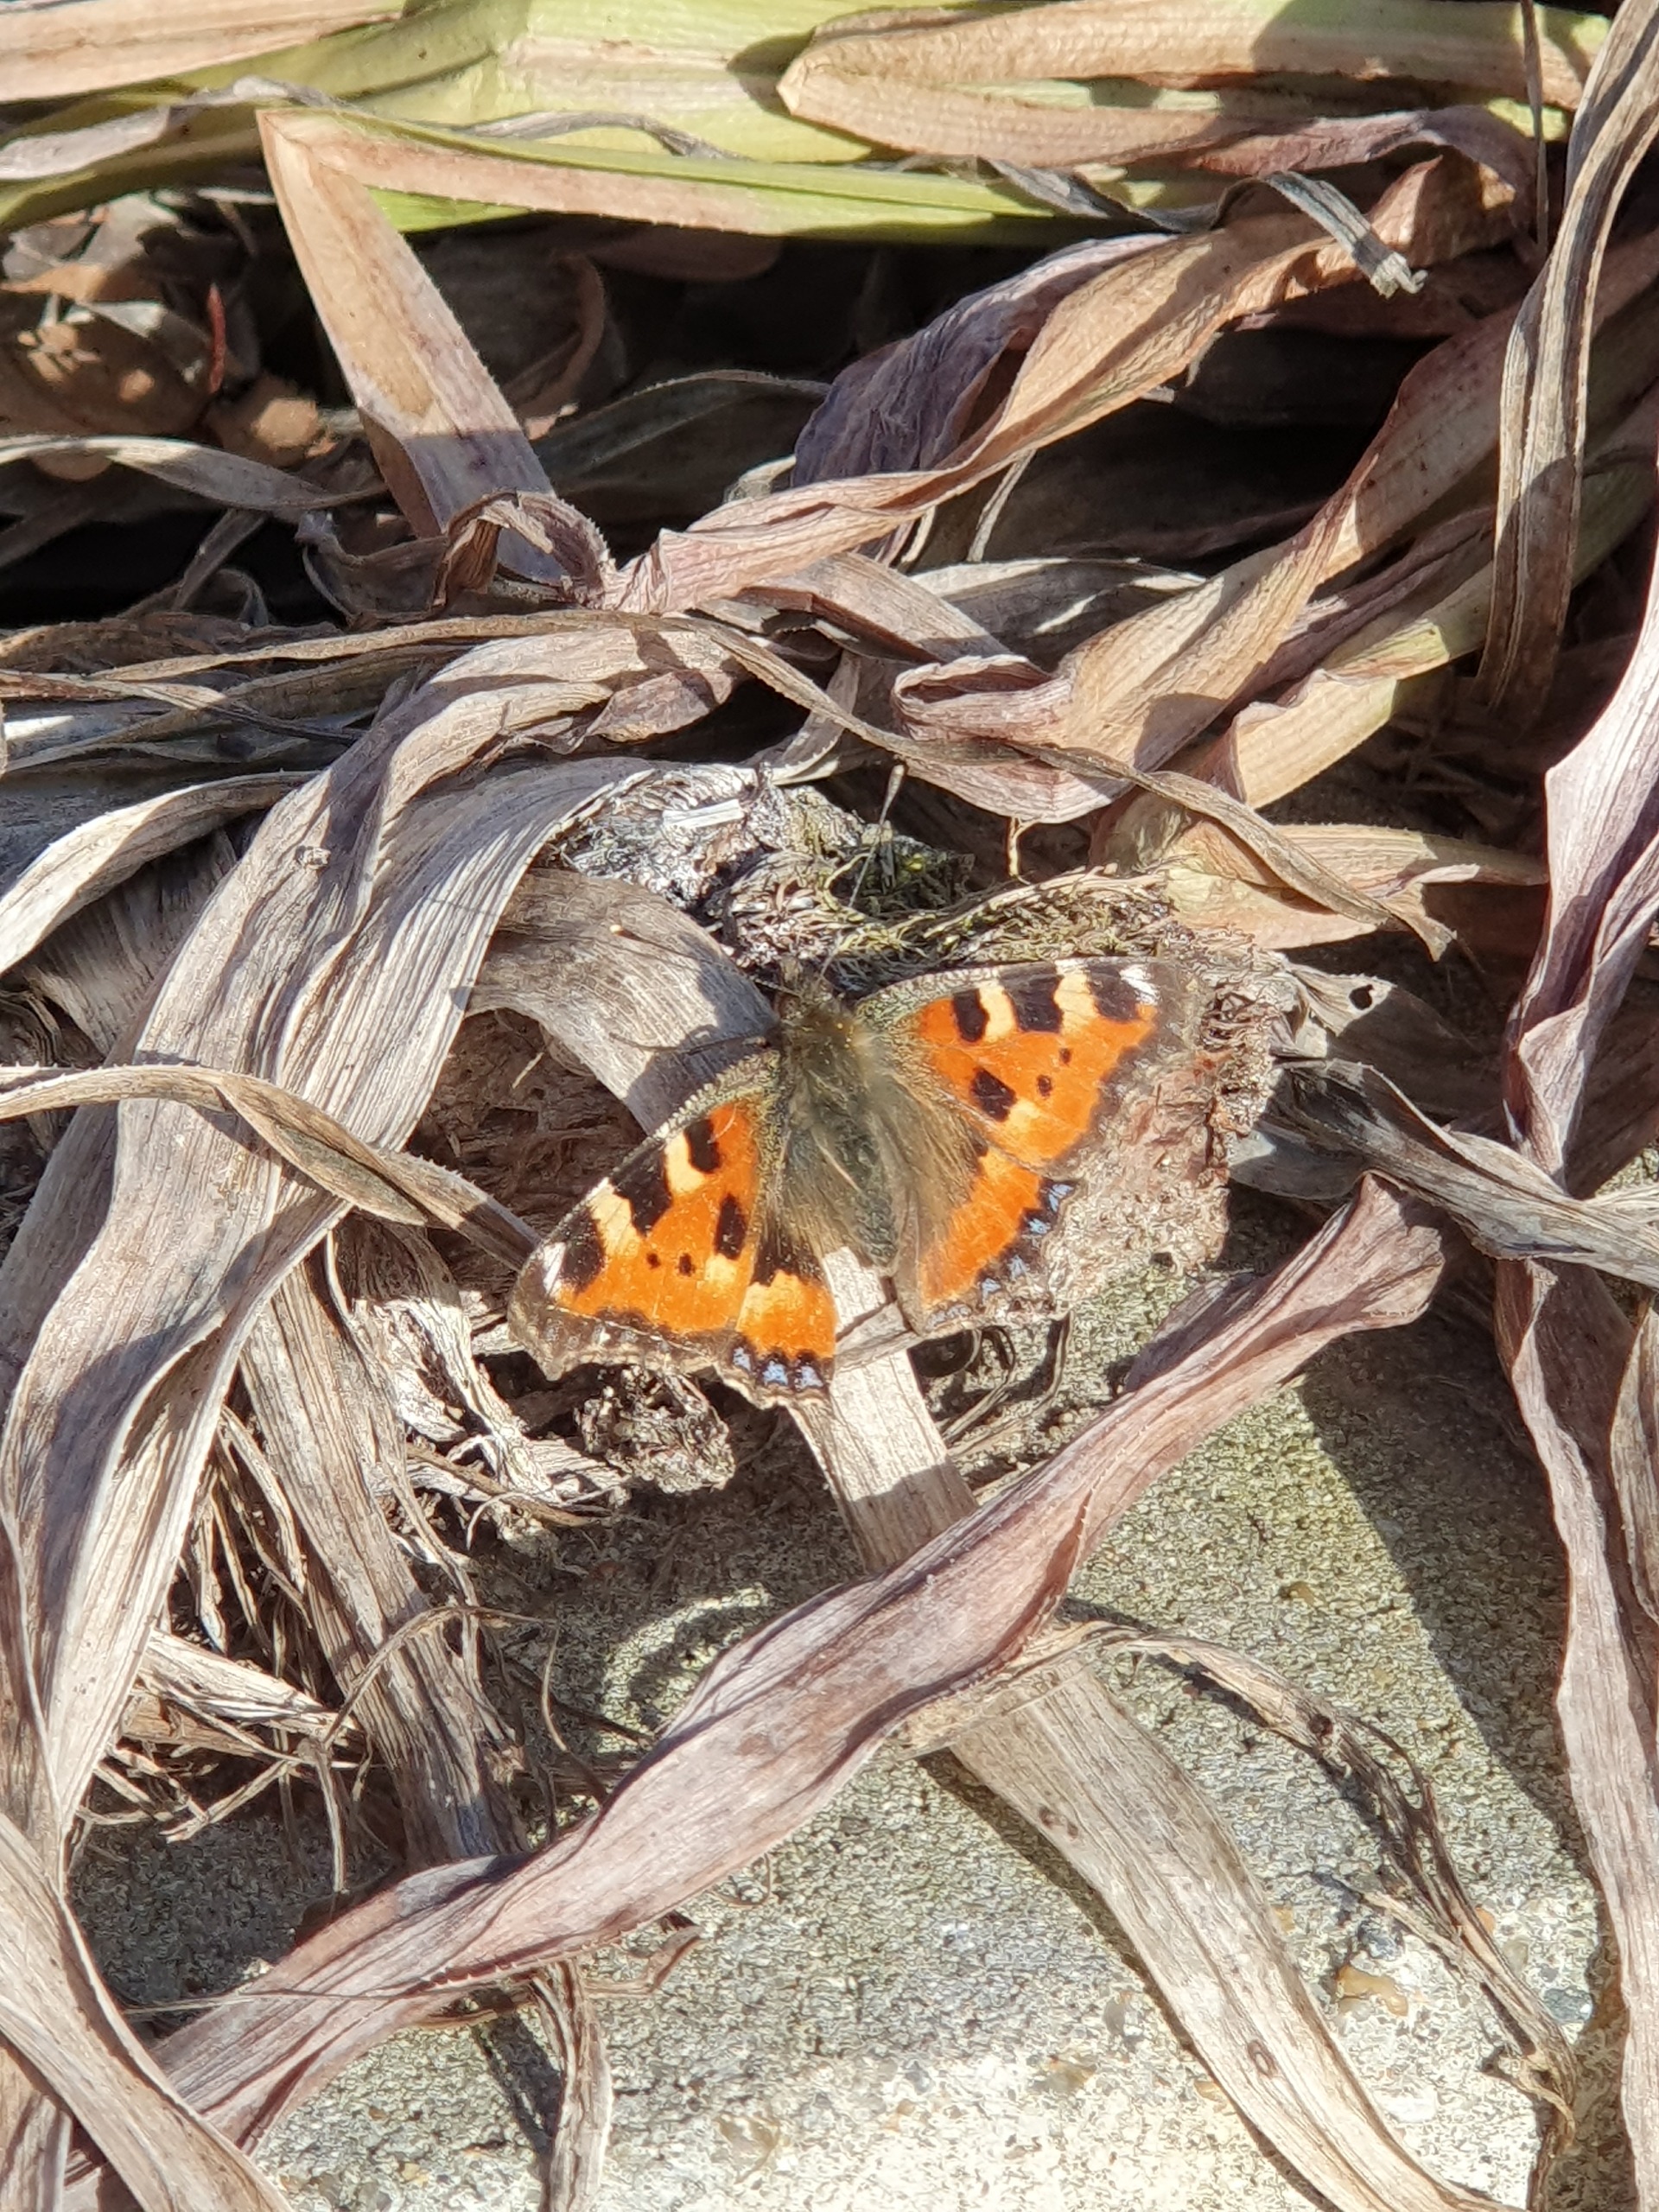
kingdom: Animalia
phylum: Arthropoda
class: Insecta
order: Lepidoptera
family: Nymphalidae
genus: Aglais
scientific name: Aglais urticae
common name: Nældens takvinge
